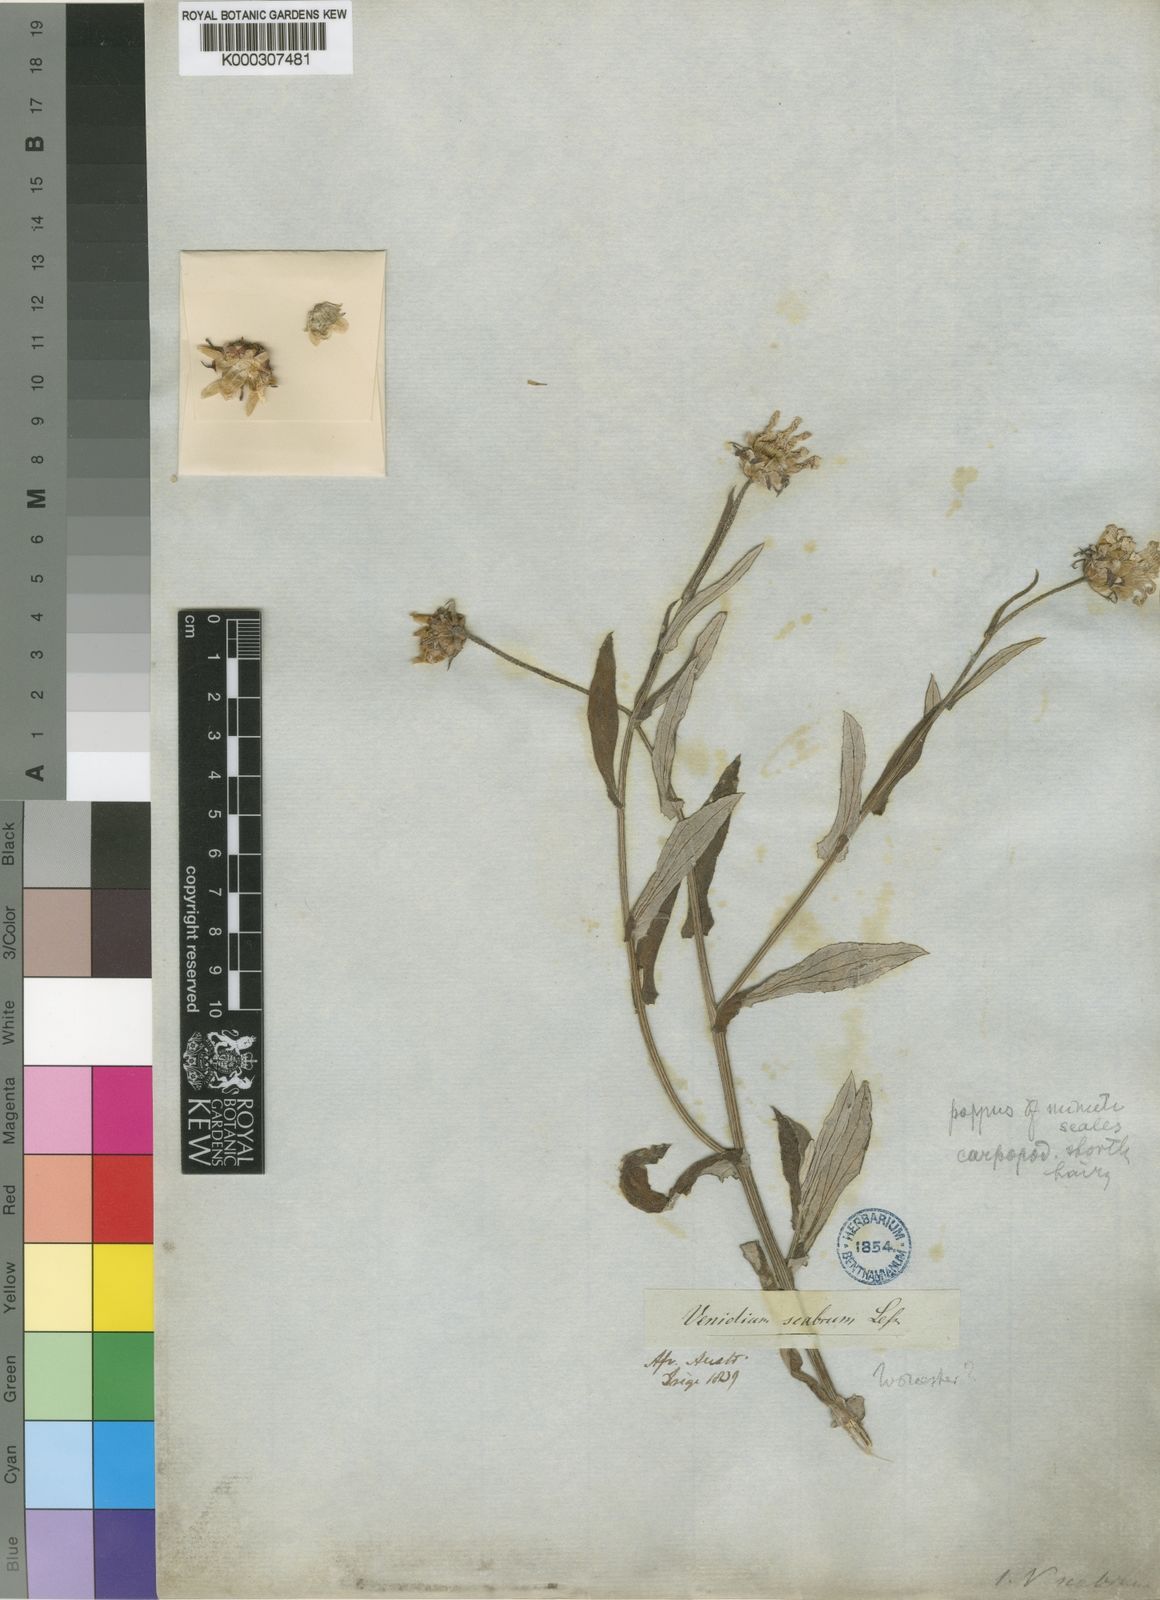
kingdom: Plantae
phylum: Tracheophyta
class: Magnoliopsida
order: Asterales
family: Asteraceae
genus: Arctotis
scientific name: Arctotis scabra
